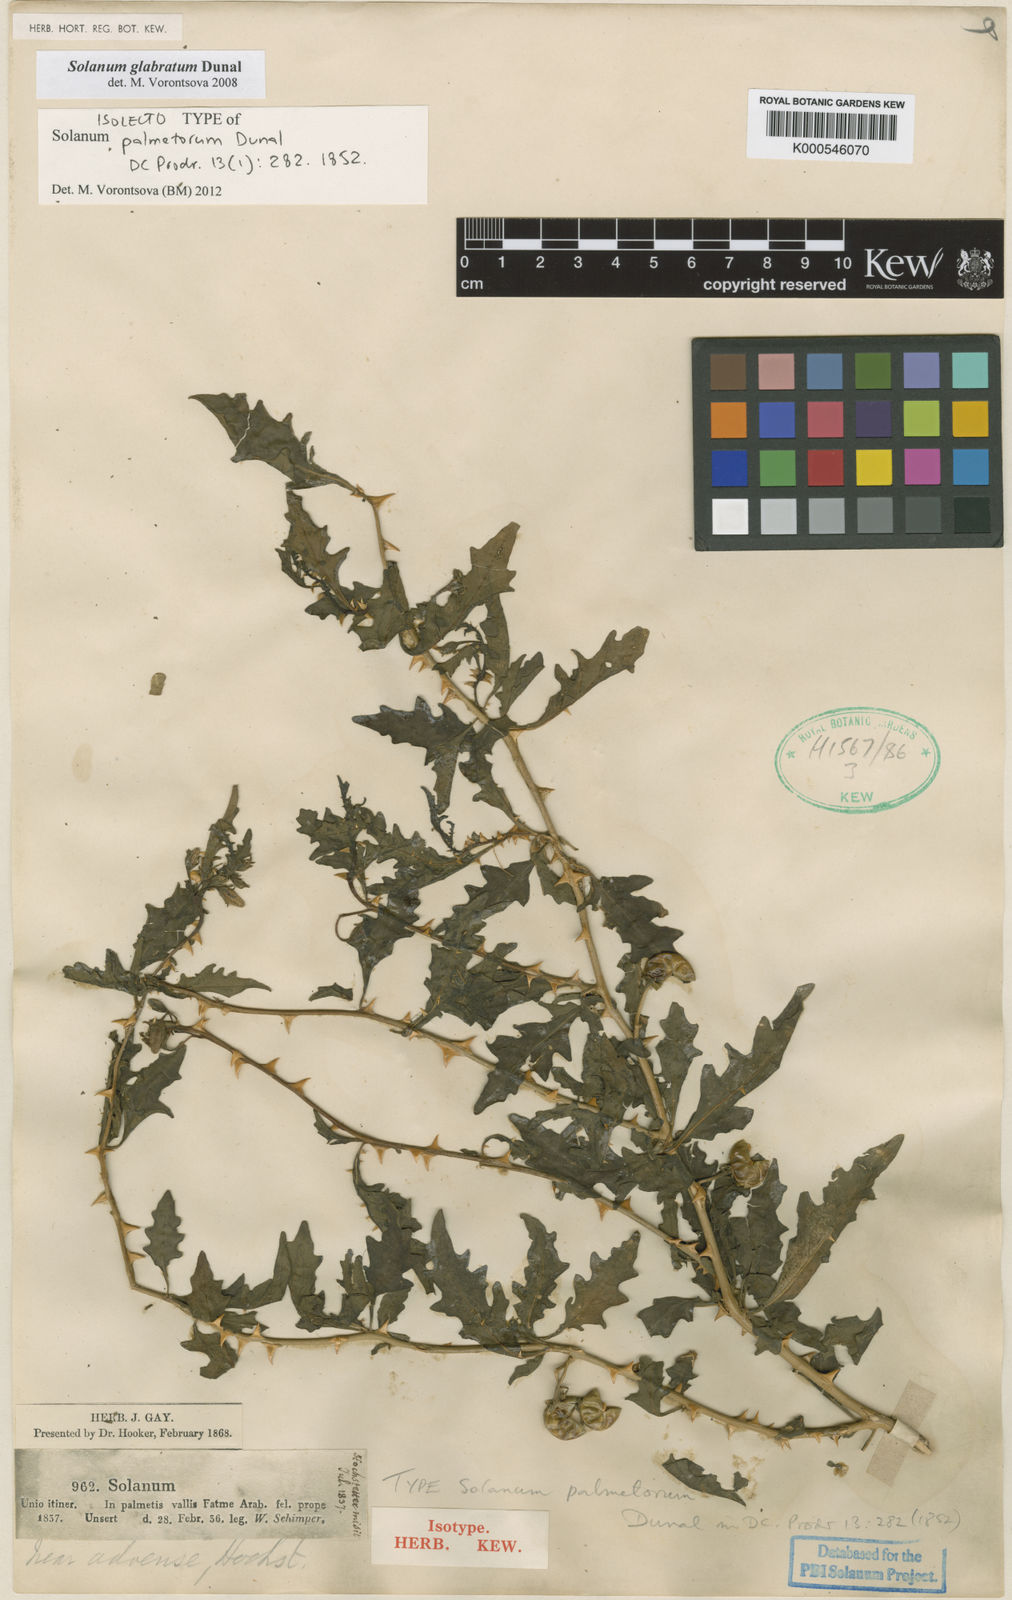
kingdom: Plantae
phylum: Tracheophyta
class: Magnoliopsida
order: Solanales
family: Solanaceae
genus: Solanum
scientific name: Solanum glabratum
